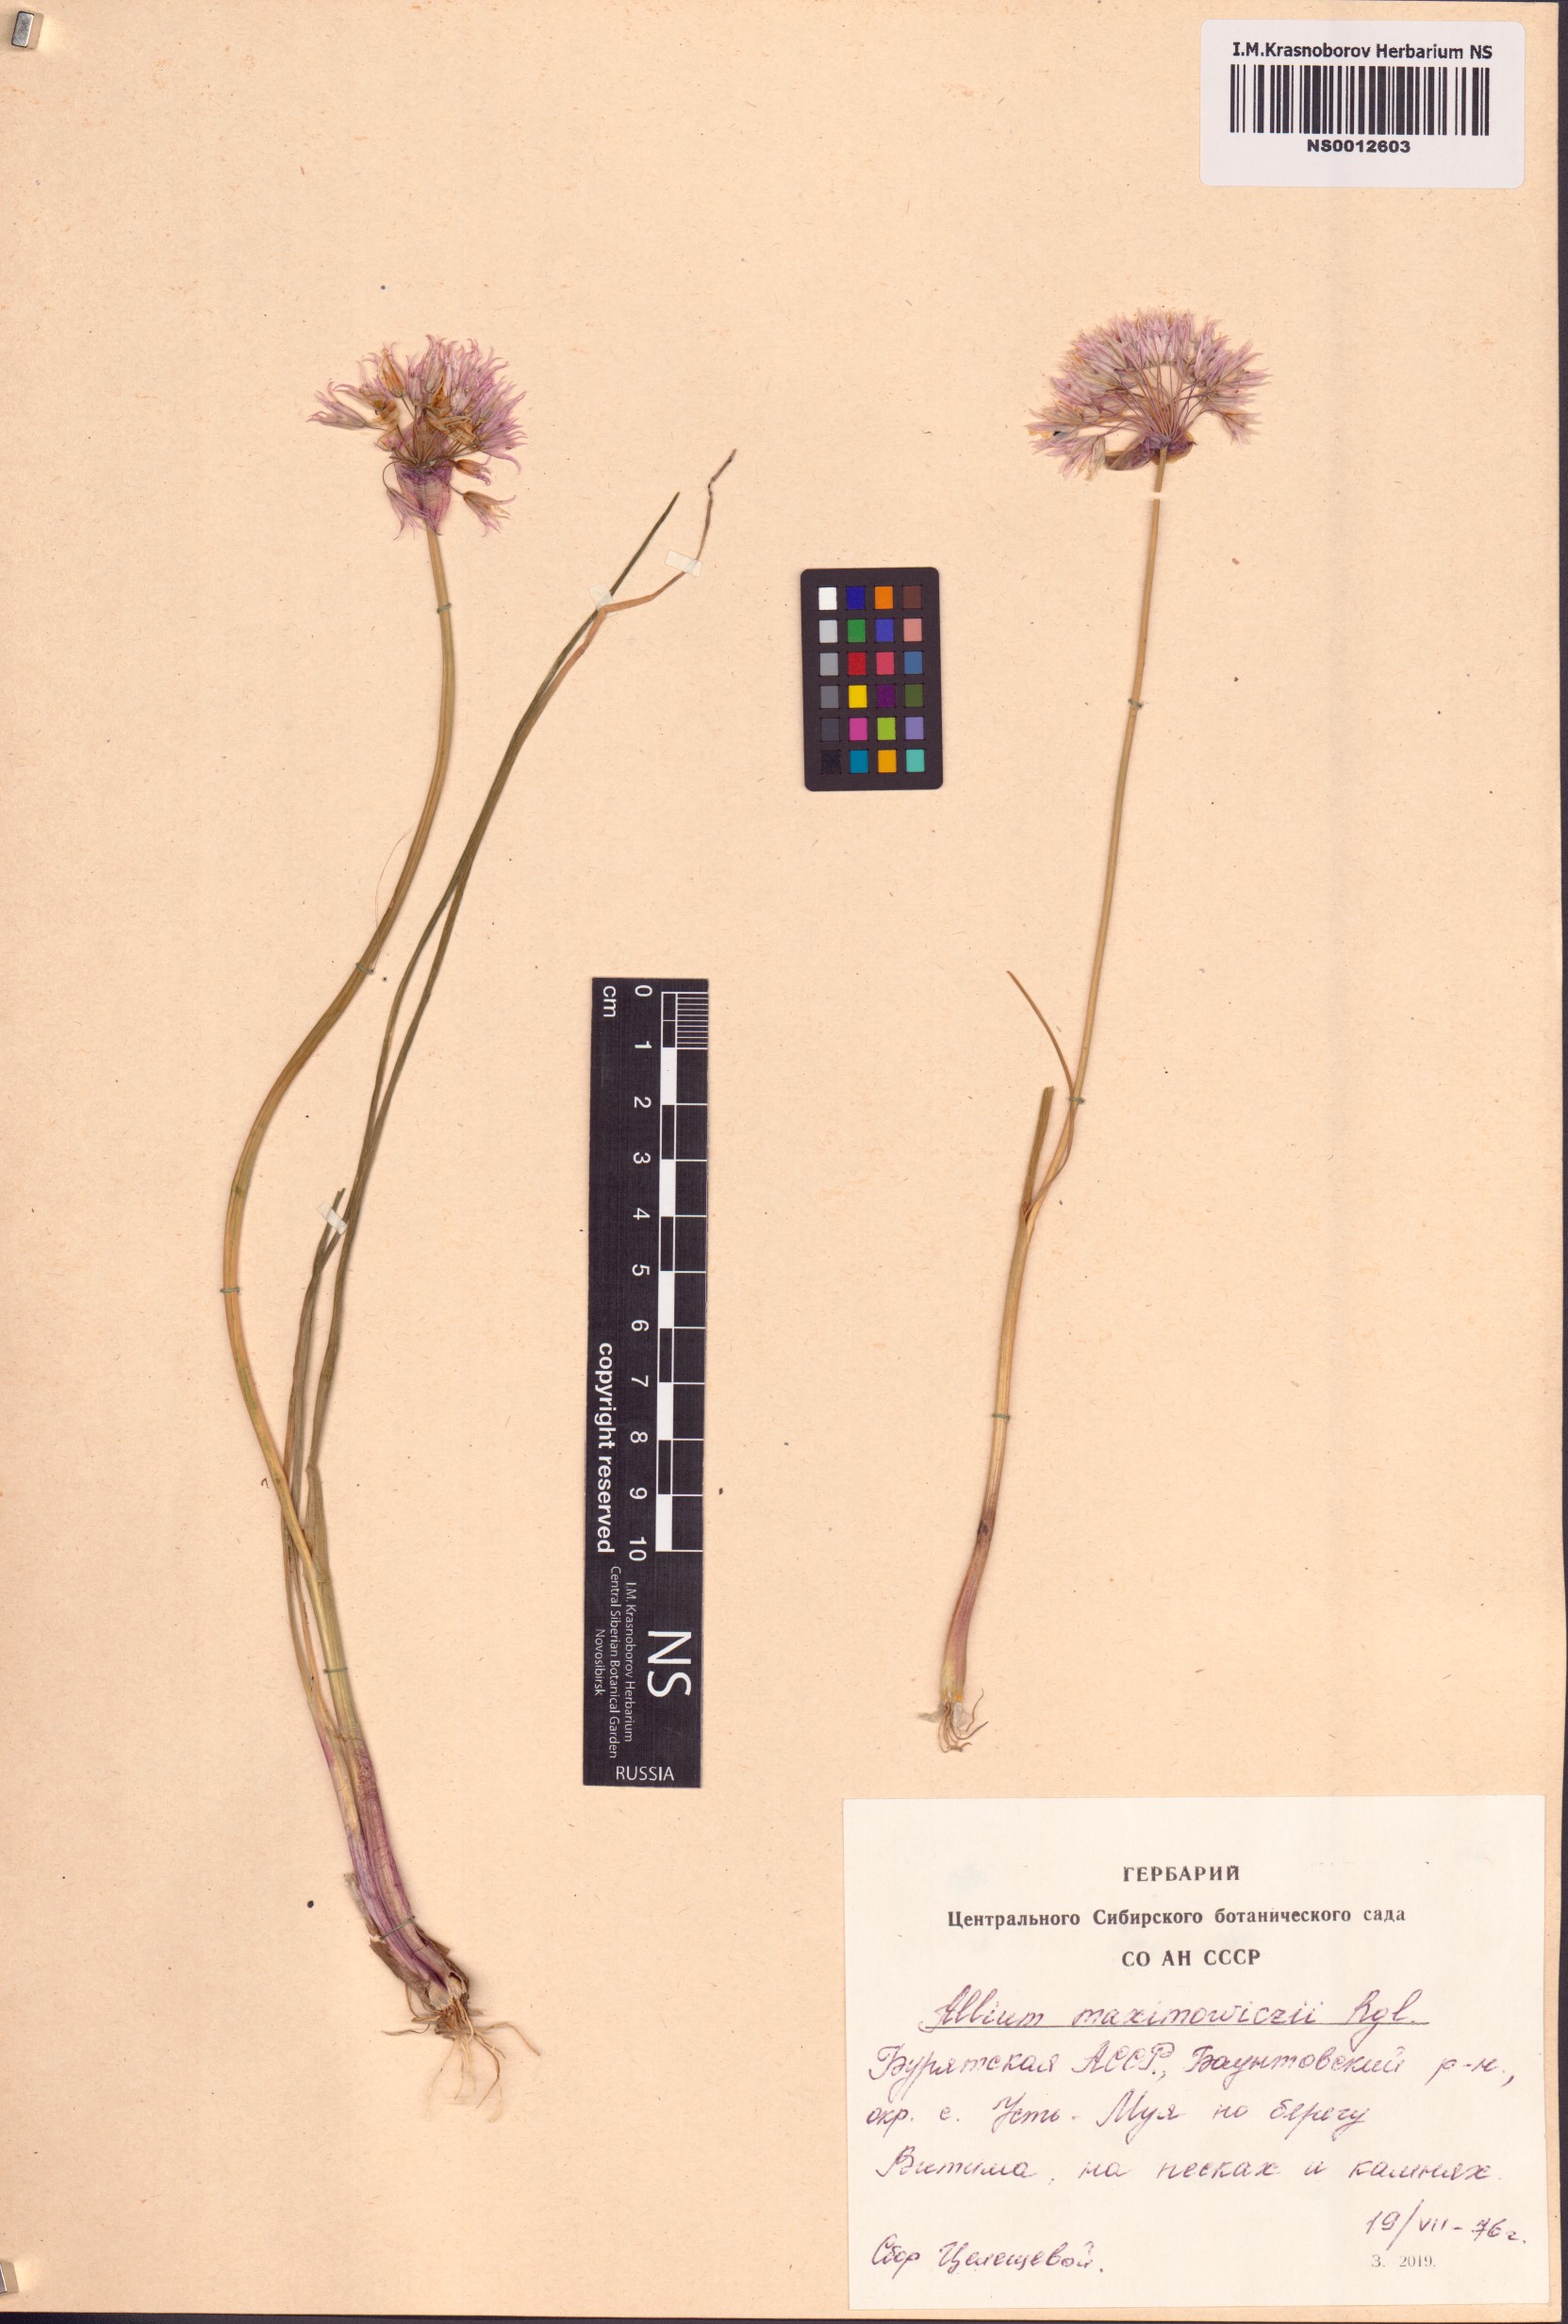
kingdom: Plantae
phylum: Tracheophyta
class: Liliopsida
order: Asparagales
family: Amaryllidaceae
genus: Allium
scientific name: Allium maximowiczii
